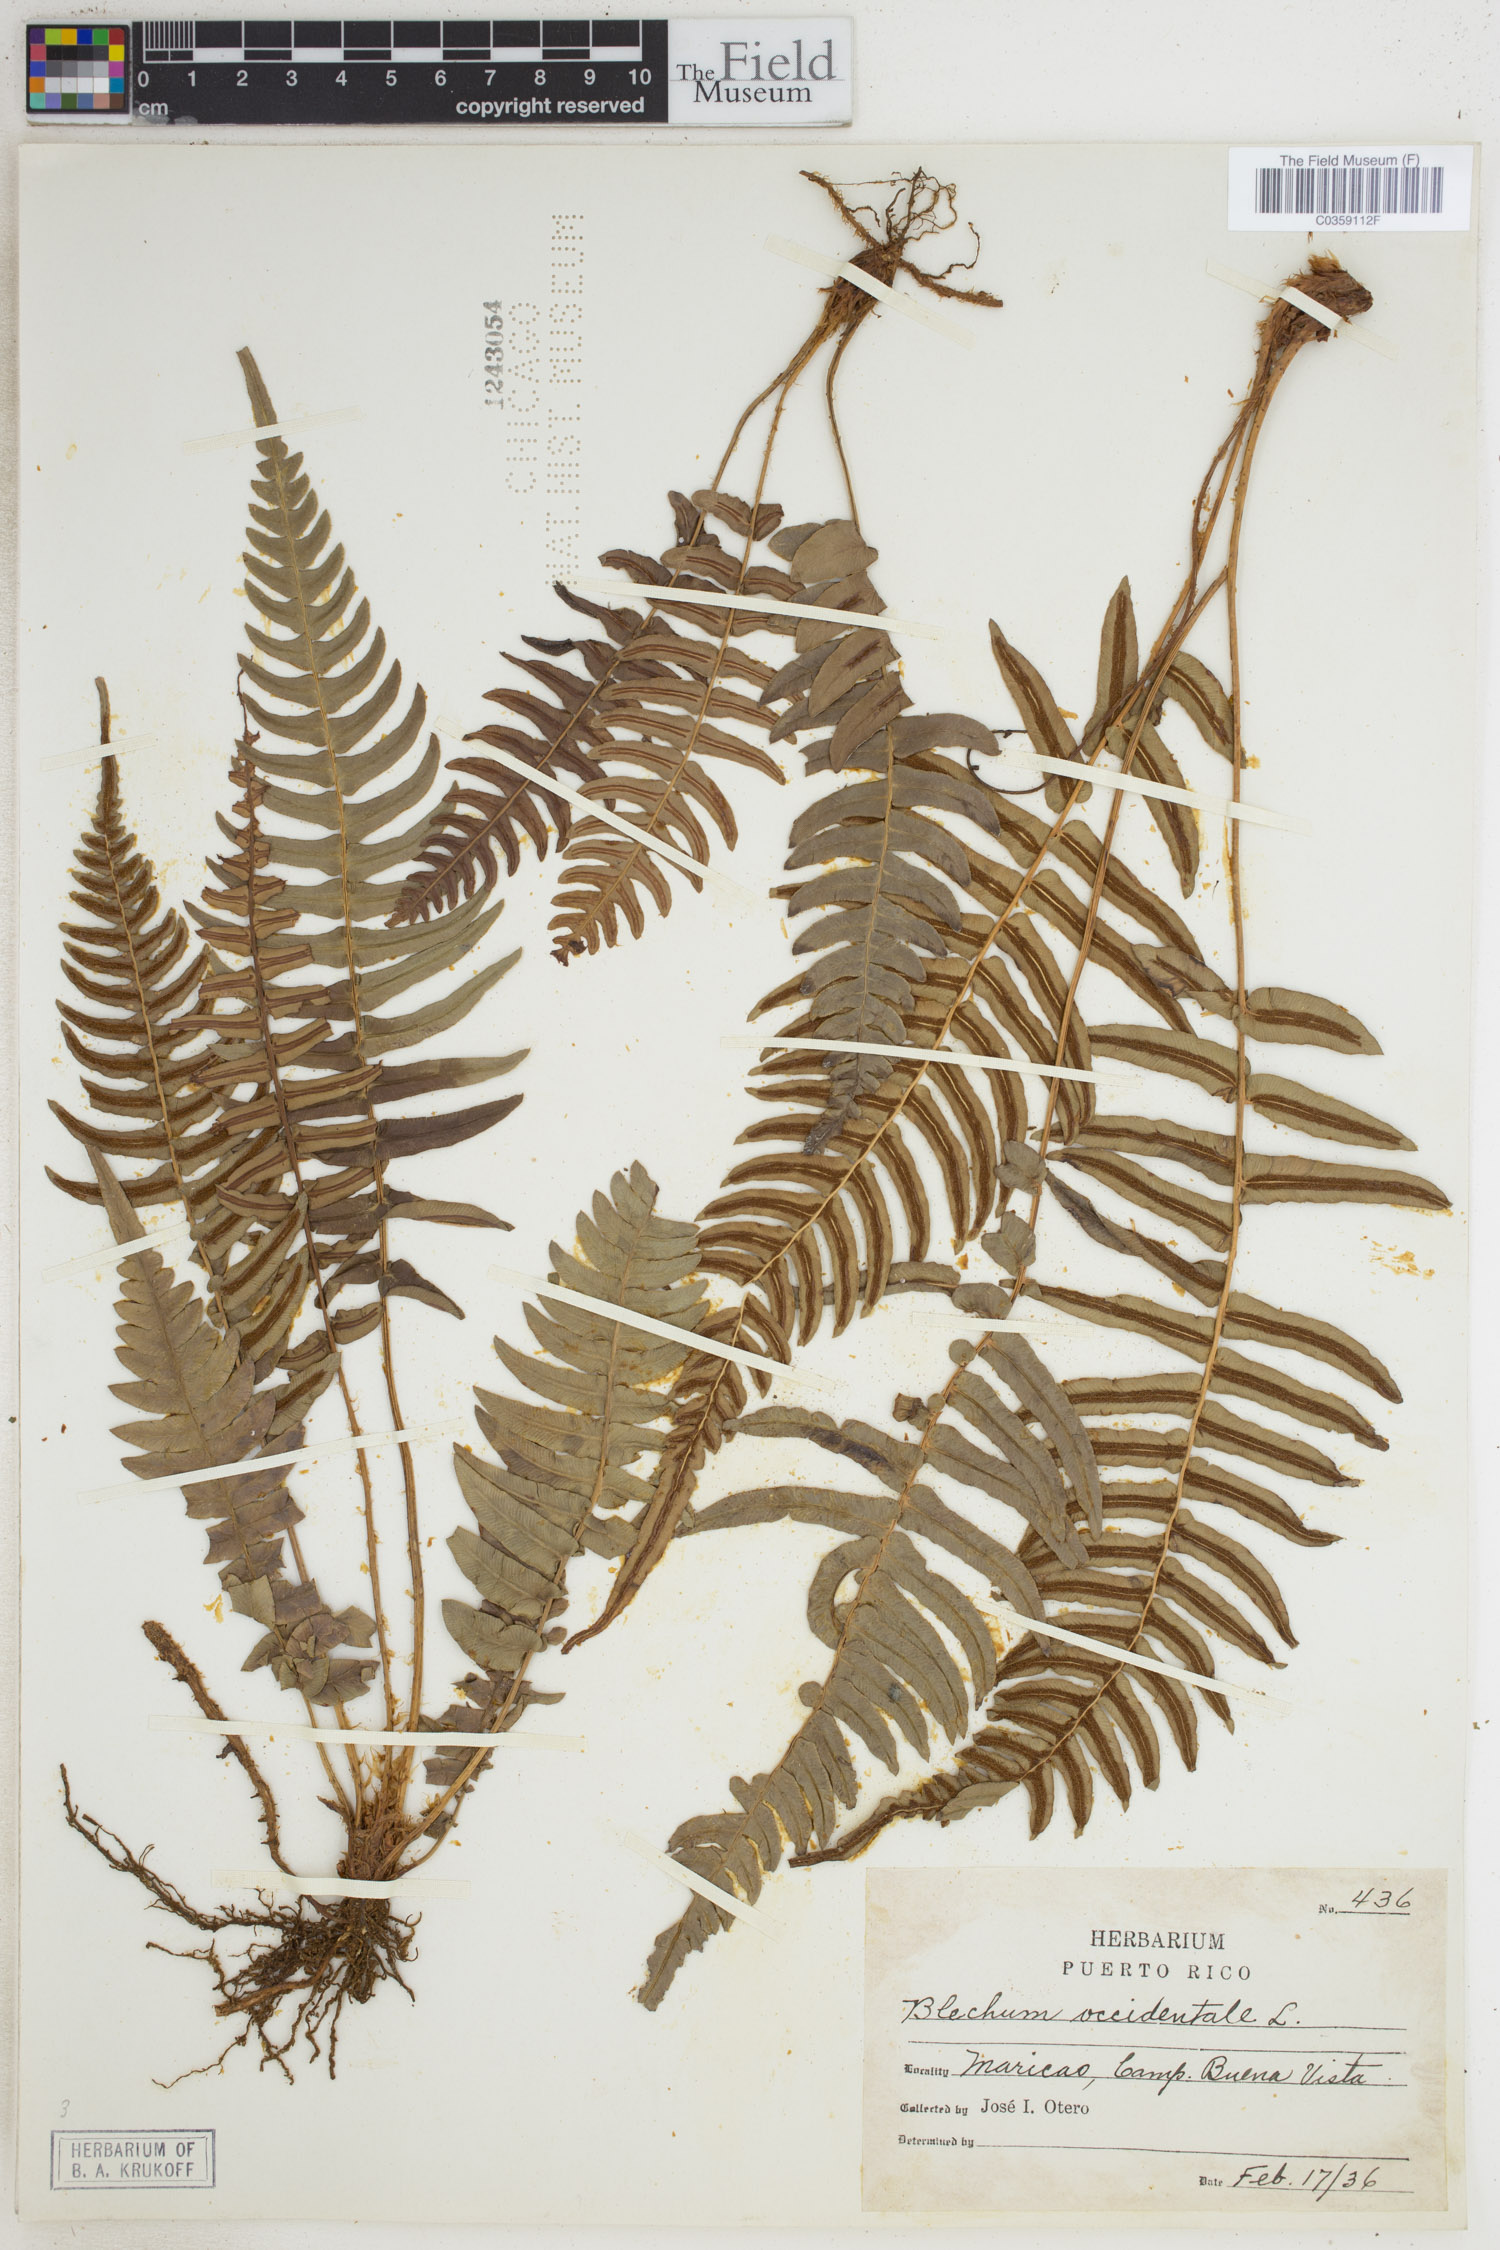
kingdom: Plantae
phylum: Tracheophyta
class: Polypodiopsida
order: Polypodiales
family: Blechnaceae
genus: Blechnum
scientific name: Blechnum occidentale
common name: Hammock fern
